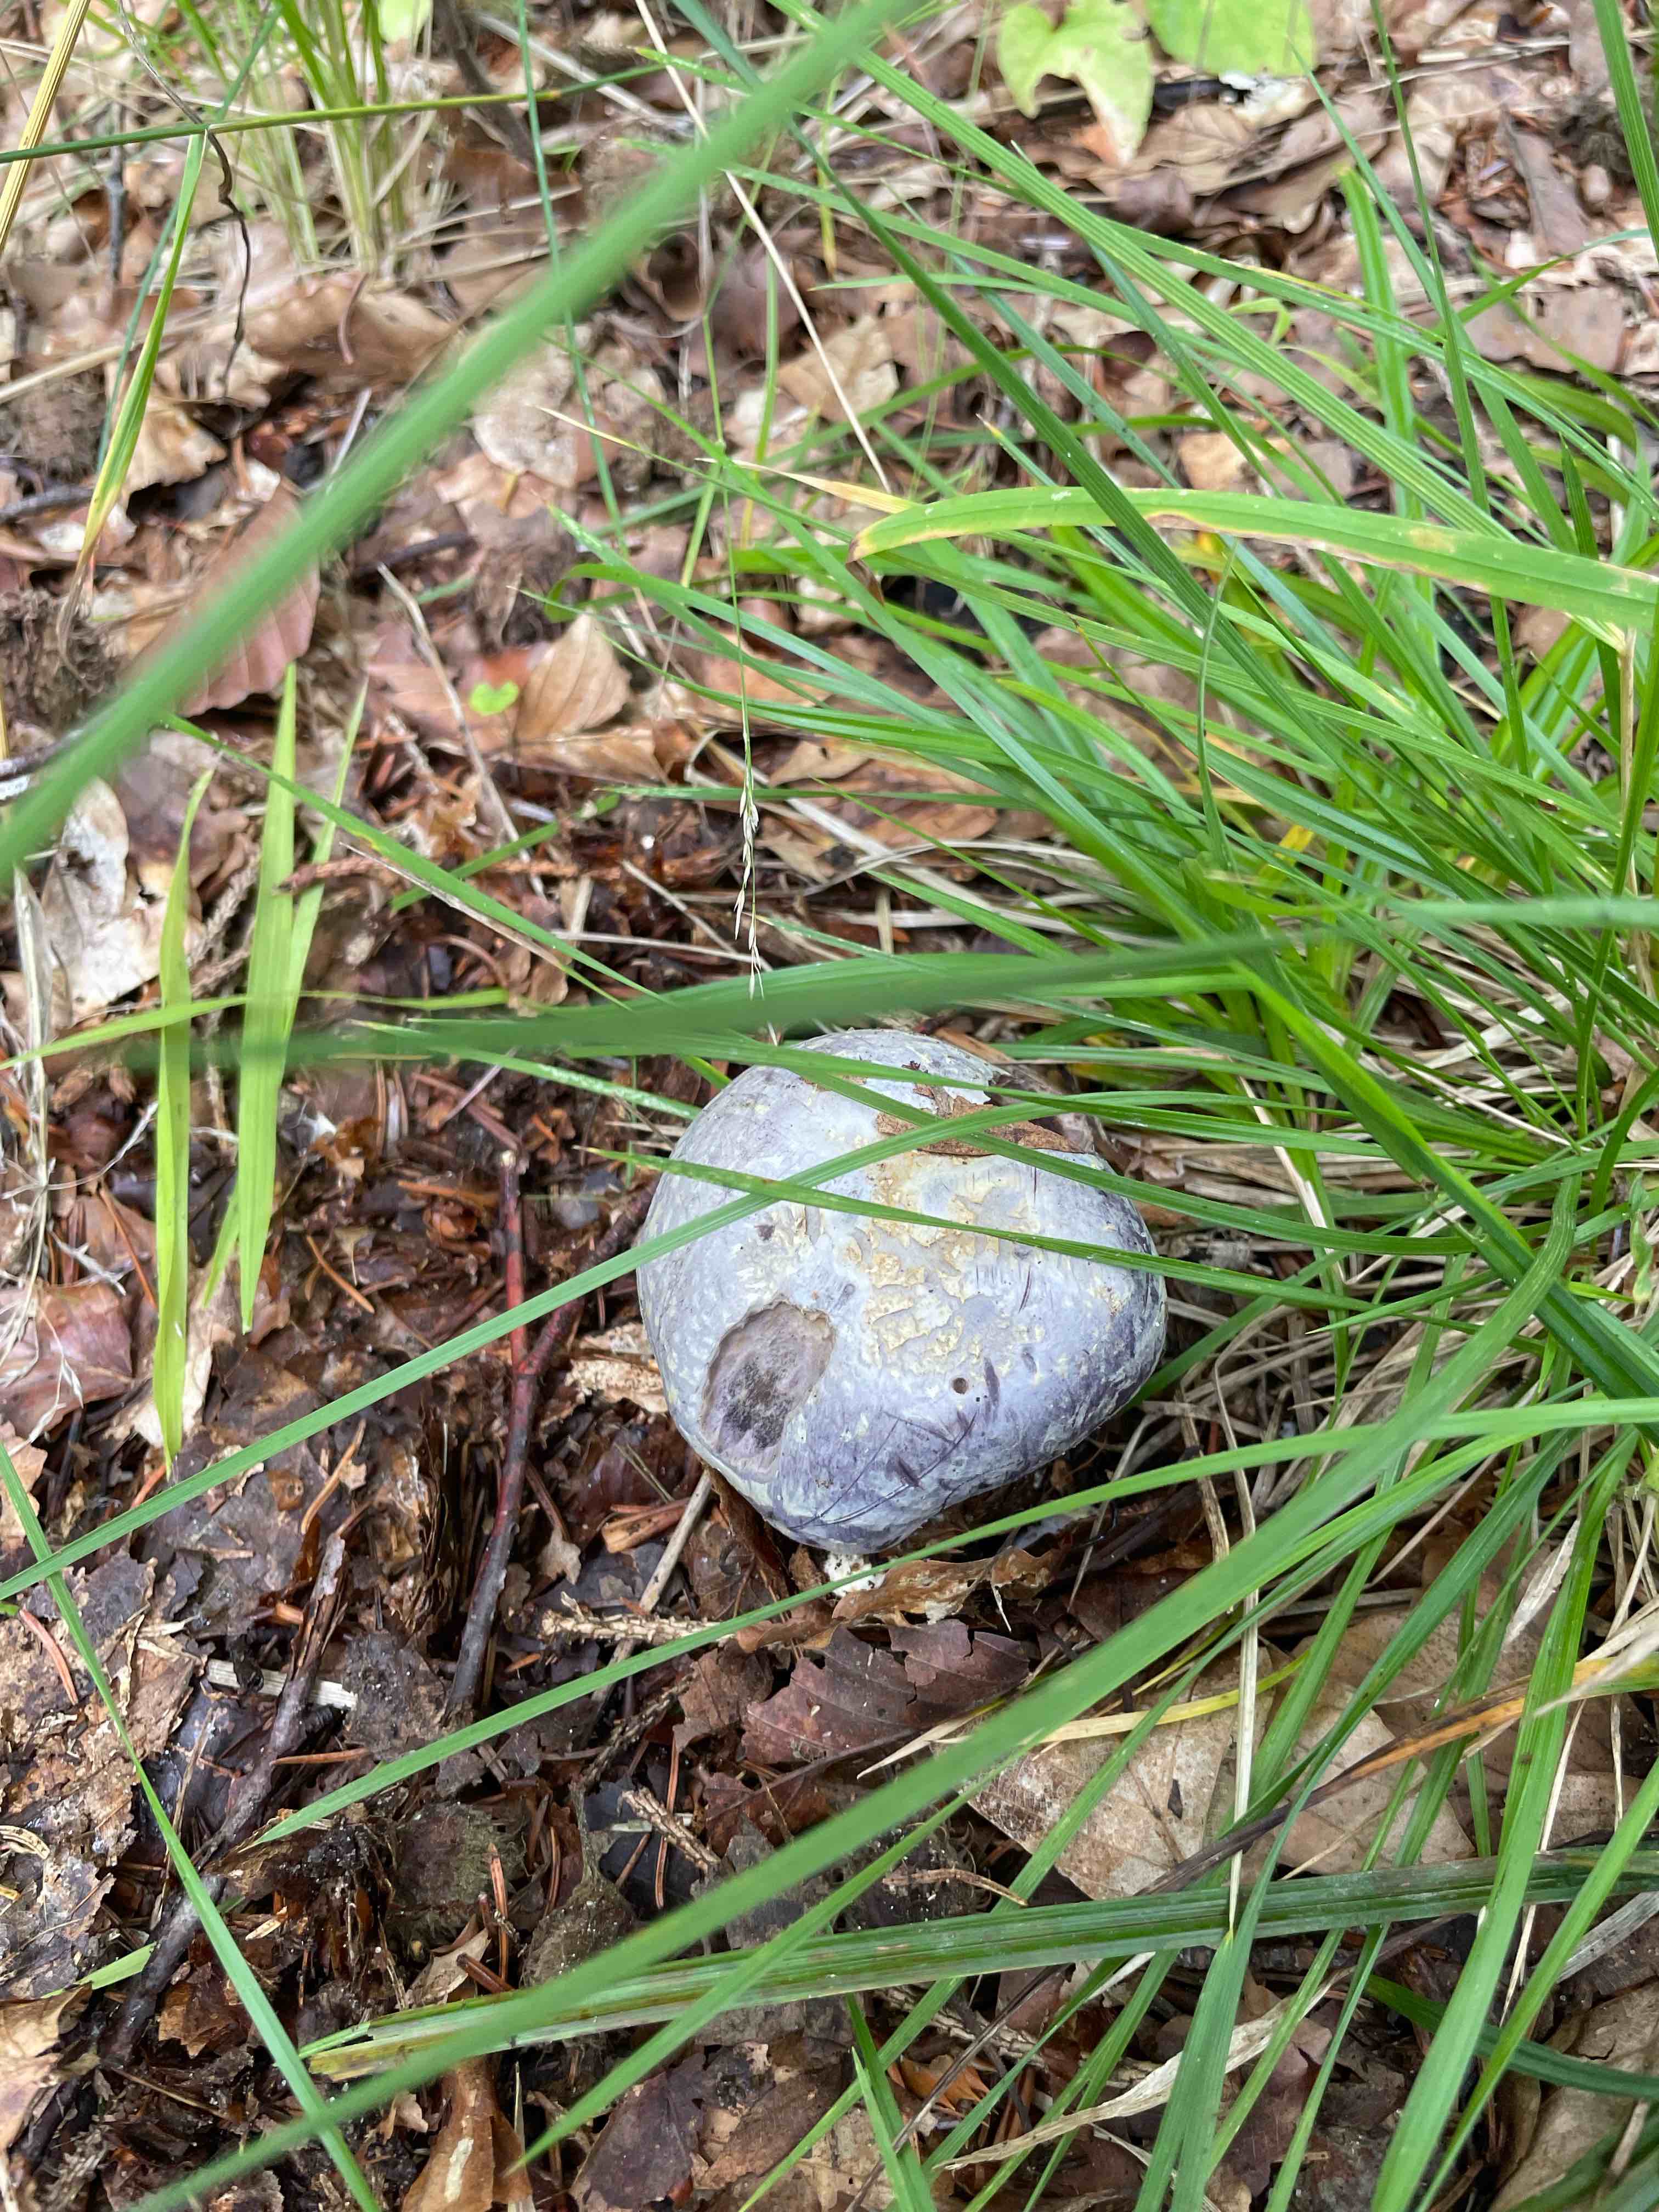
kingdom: Fungi
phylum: Basidiomycota
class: Agaricomycetes
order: Agaricales
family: Cortinariaceae
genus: Cortinarius
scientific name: Cortinarius caerulescens
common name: blåkødet slørhat
